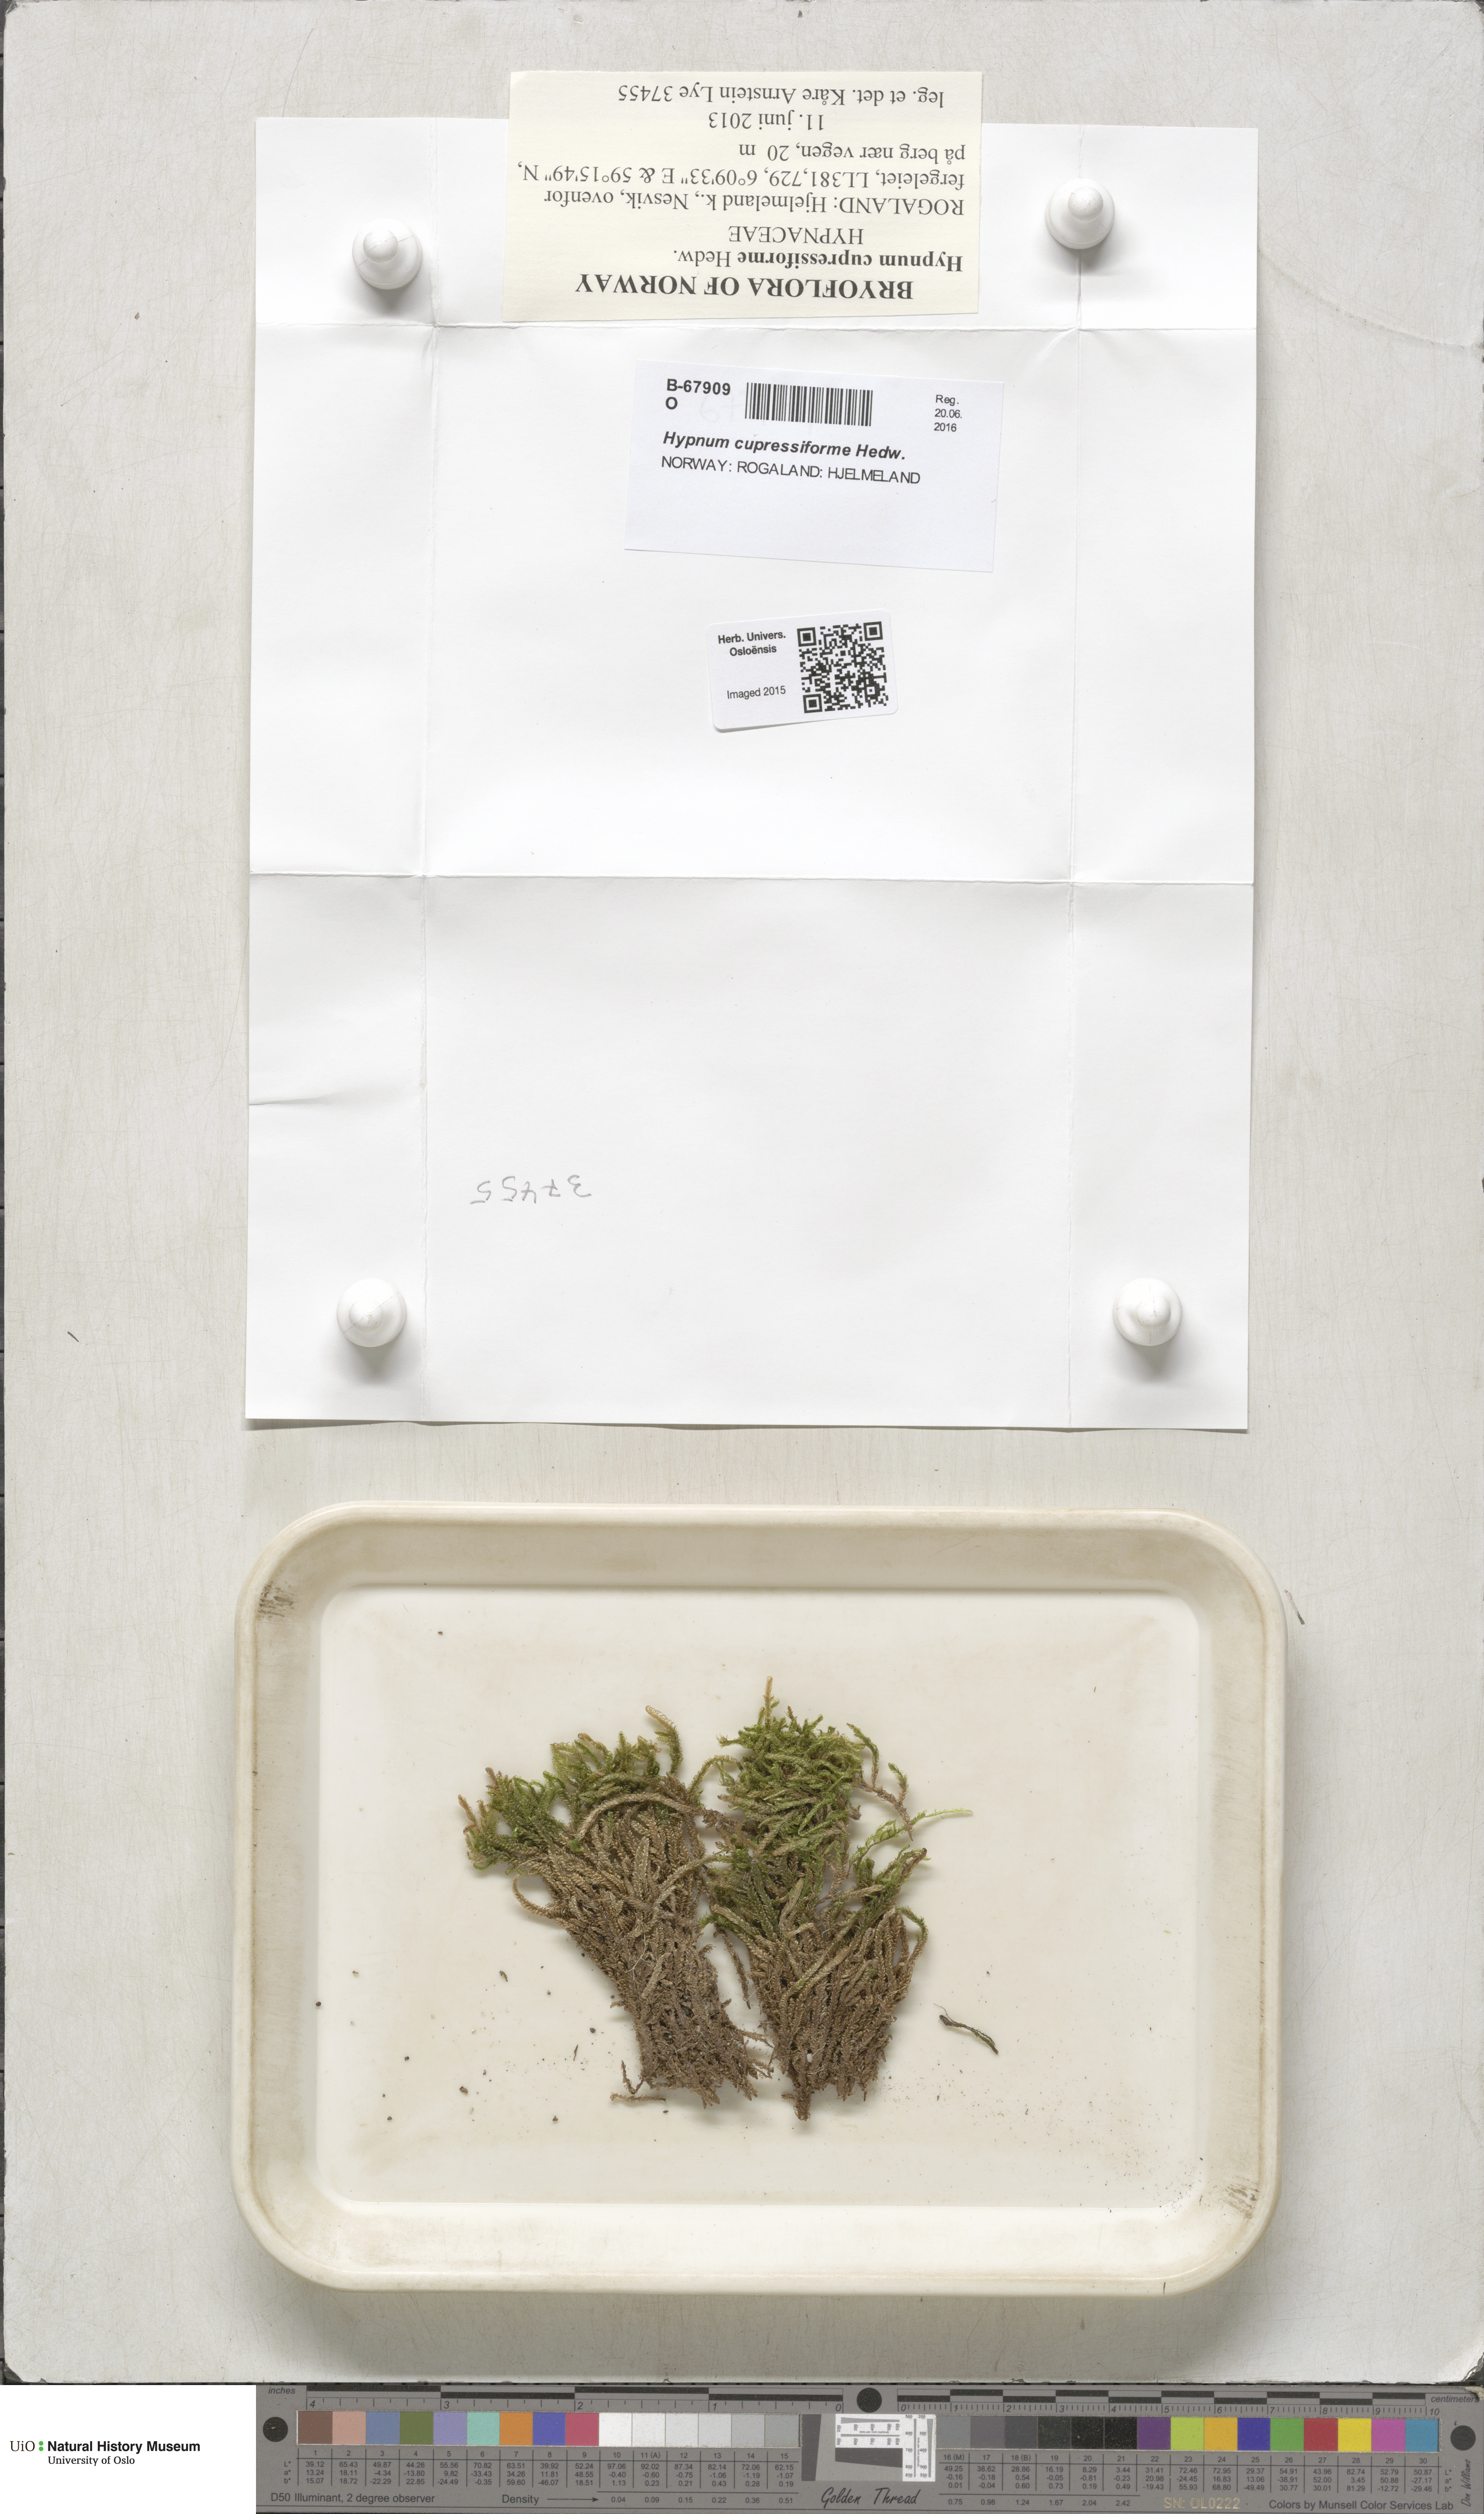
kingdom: Plantae
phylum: Bryophyta
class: Bryopsida
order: Hypnales
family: Hypnaceae
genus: Hypnum
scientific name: Hypnum cupressiforme
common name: Cypress-leaved plait-moss
